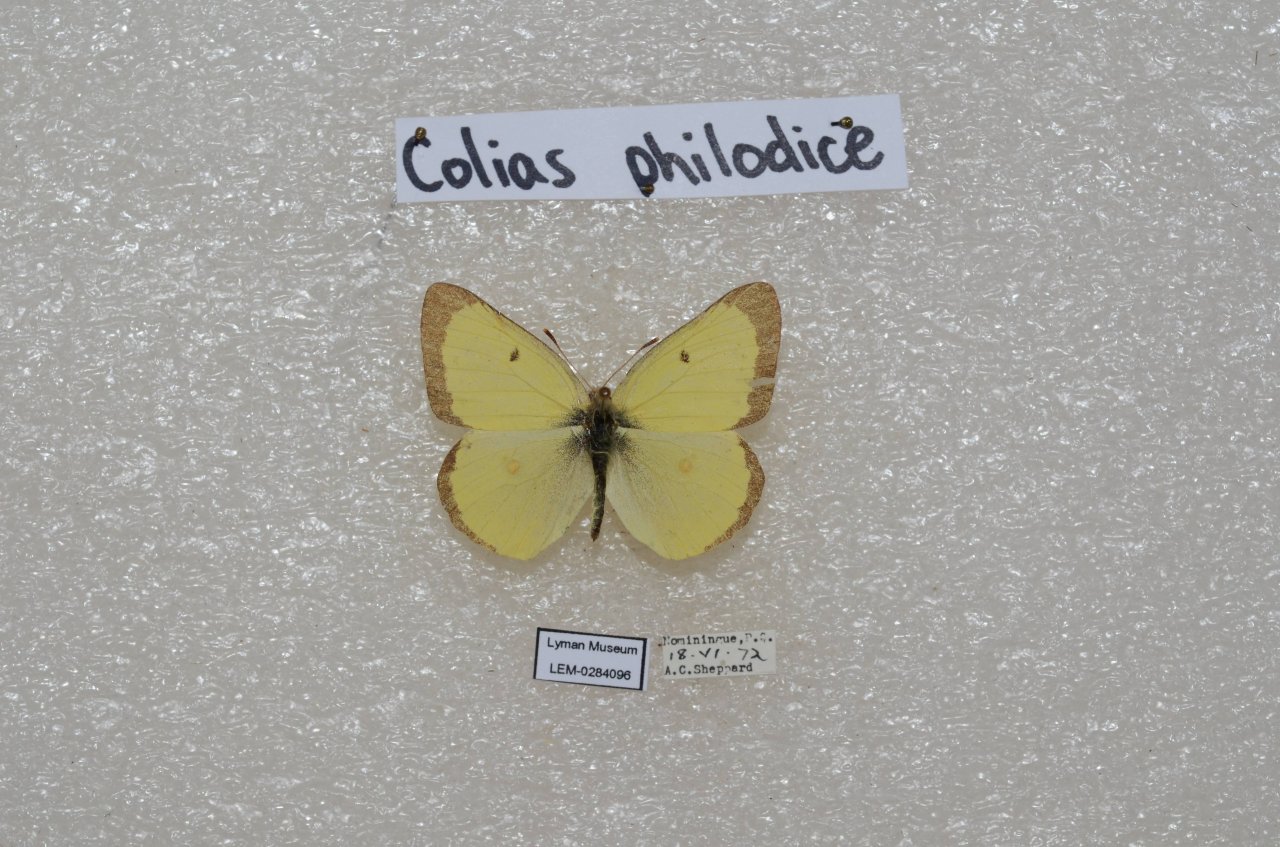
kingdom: Animalia
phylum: Arthropoda
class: Insecta
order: Lepidoptera
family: Pieridae
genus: Colias
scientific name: Colias philodice
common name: Clouded Sulphur
